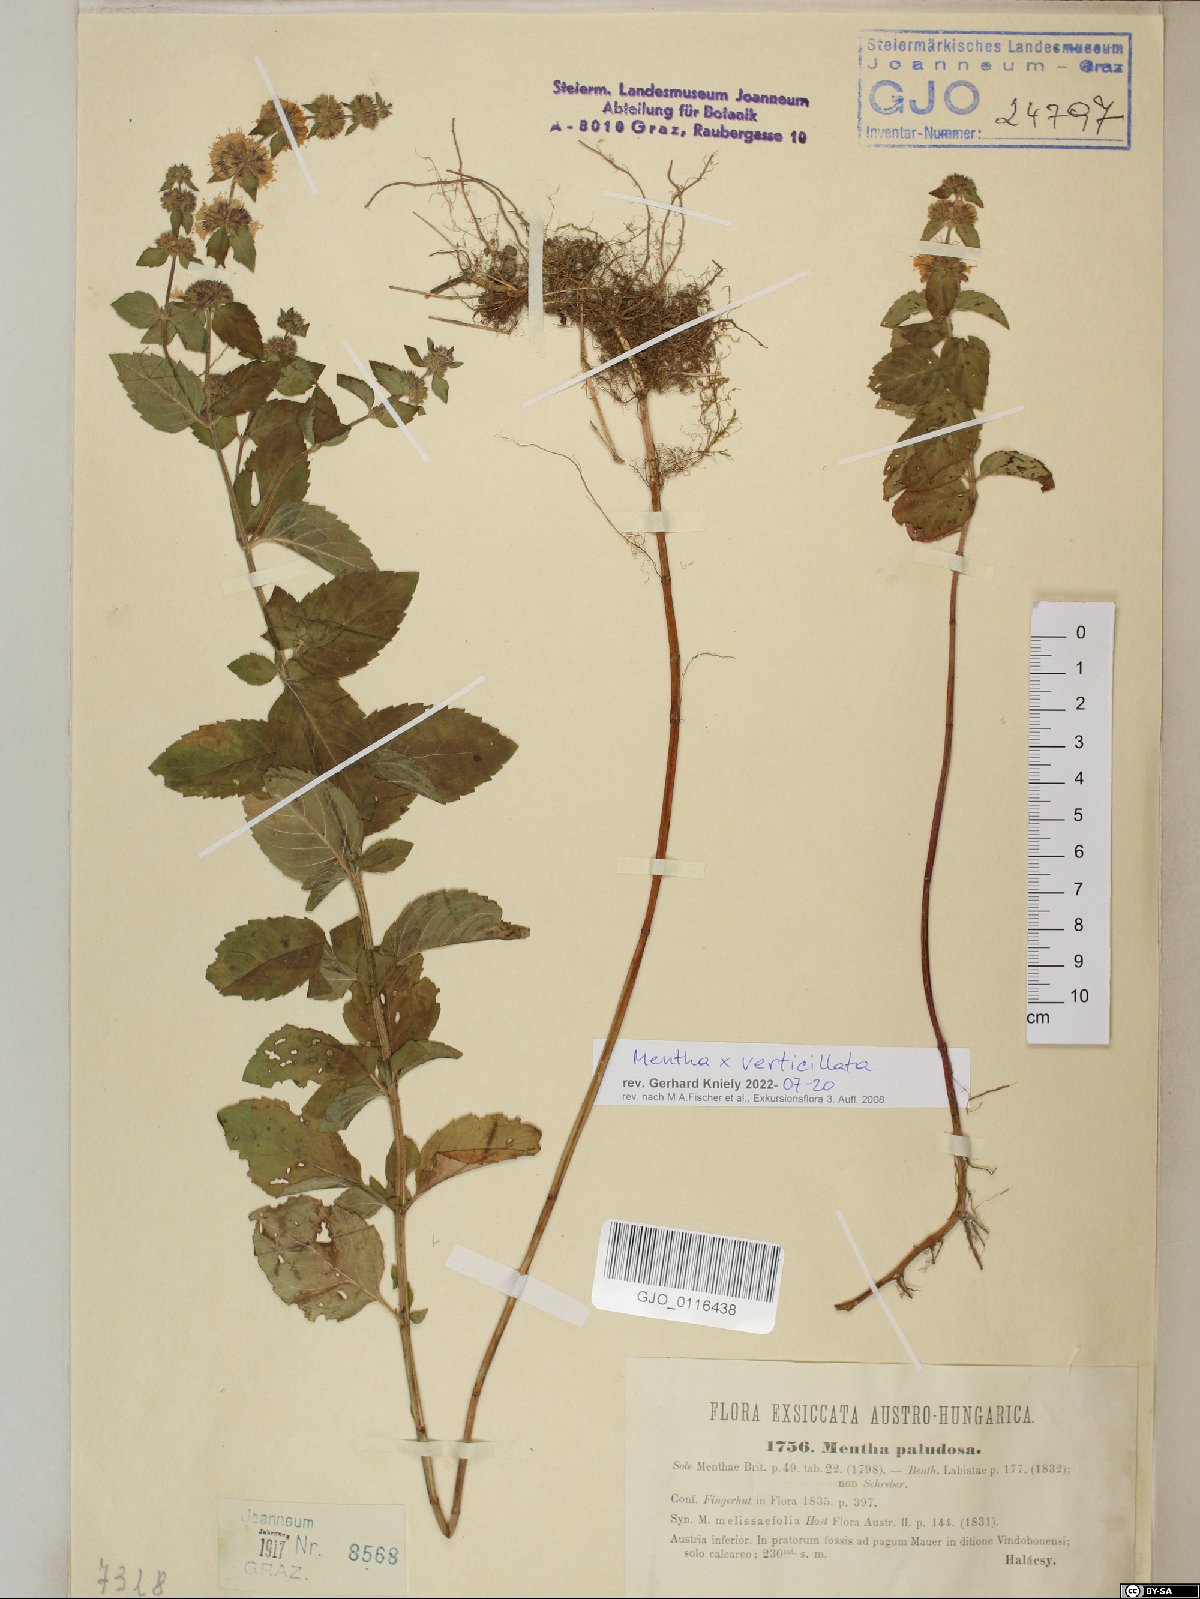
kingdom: Plantae
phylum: Tracheophyta
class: Magnoliopsida
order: Lamiales
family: Lamiaceae
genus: Mentha
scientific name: Mentha verticillata
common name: Mint
